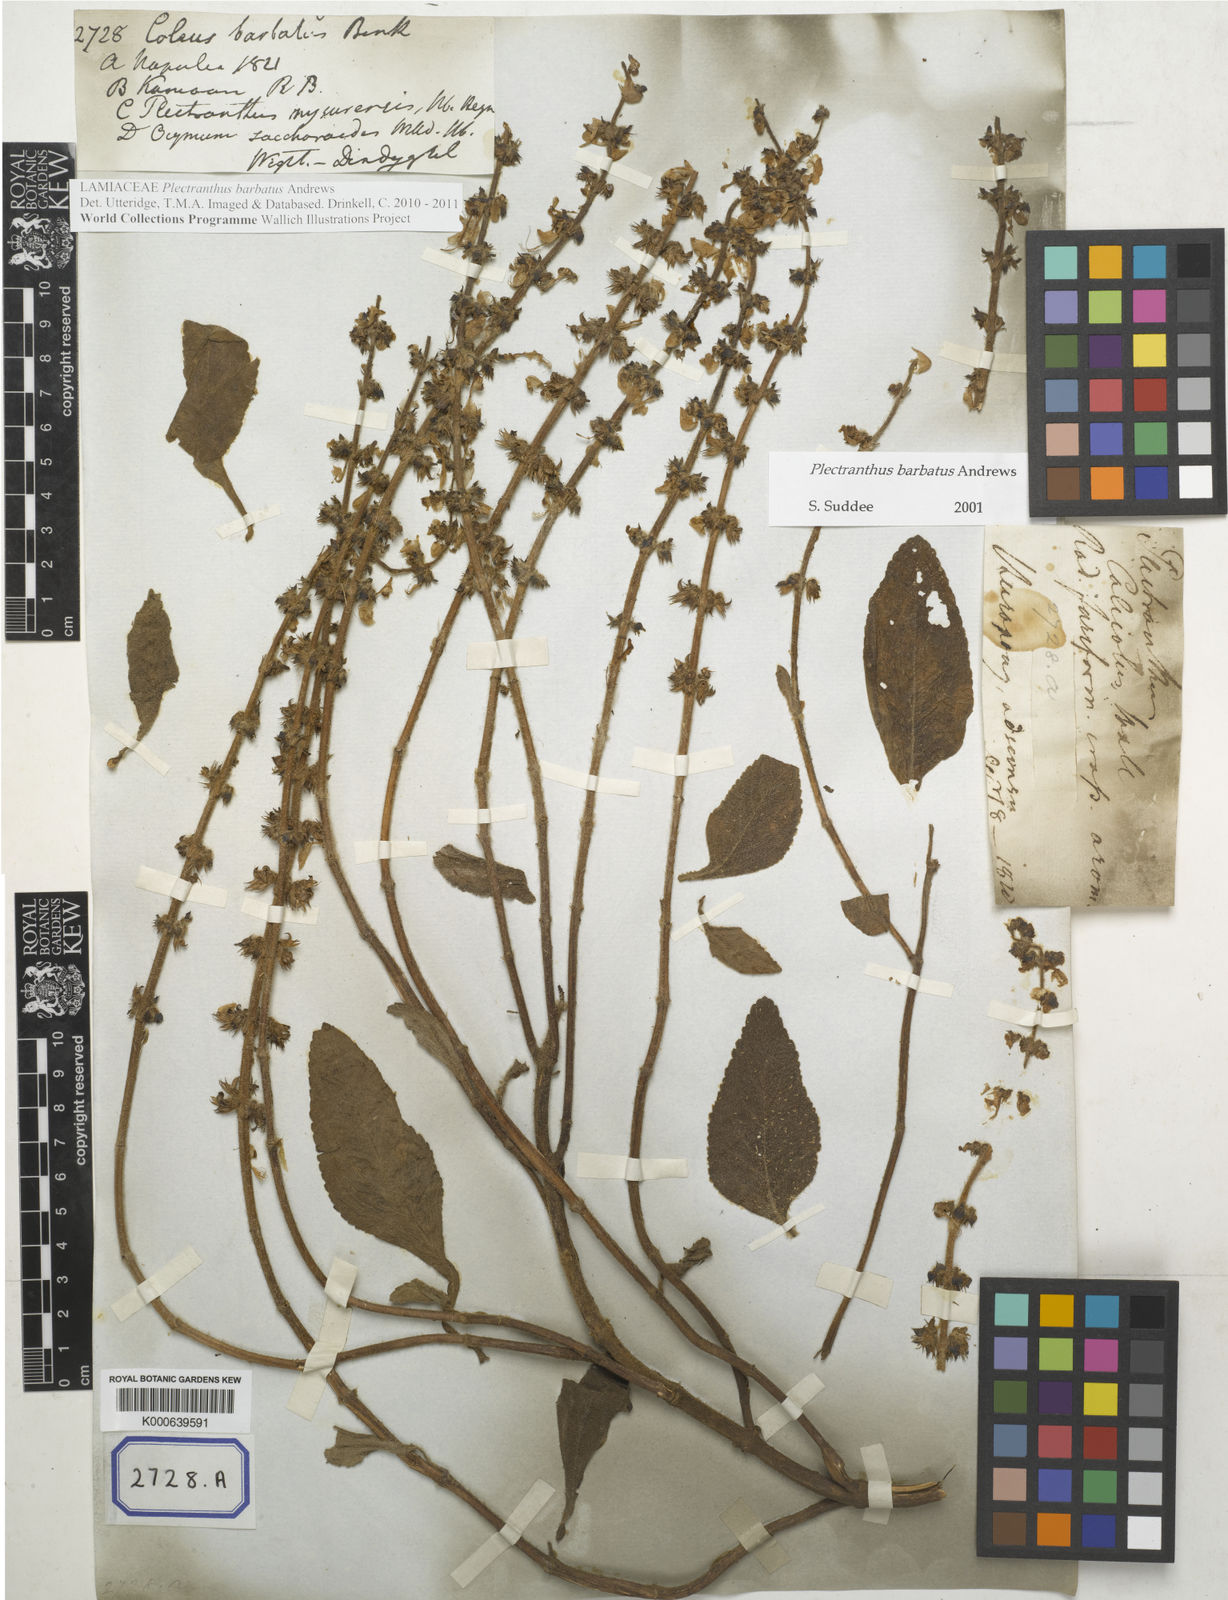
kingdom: Plantae
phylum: Tracheophyta
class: Magnoliopsida
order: Lamiales
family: Lamiaceae
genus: Coleus
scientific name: Coleus
